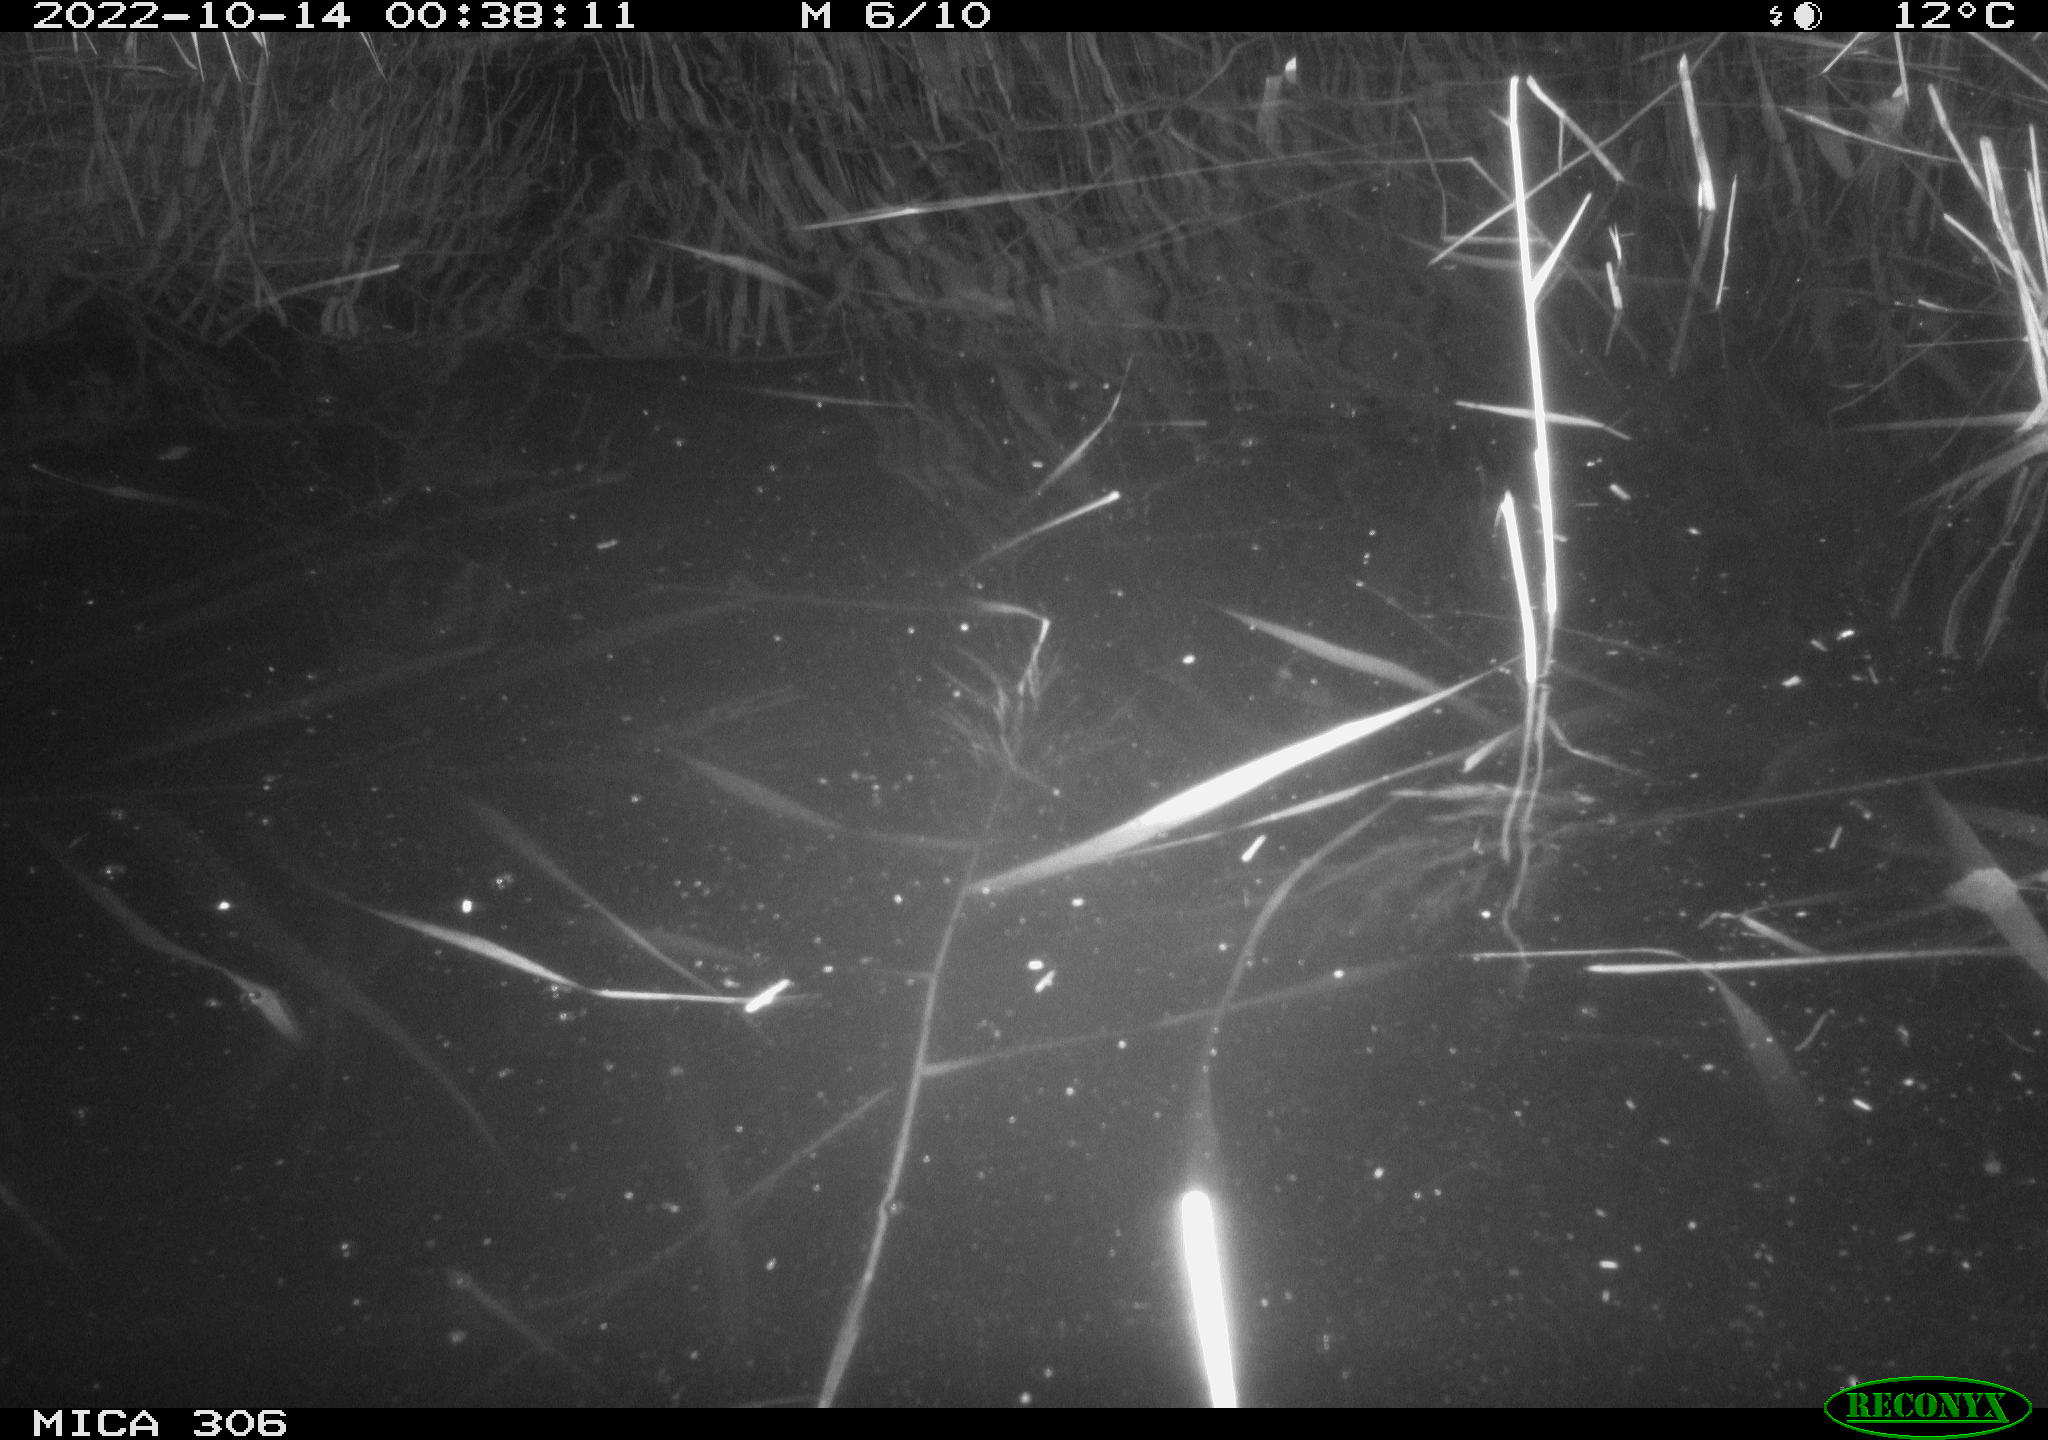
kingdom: Animalia
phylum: Chordata
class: Mammalia
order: Rodentia
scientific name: Rodentia
